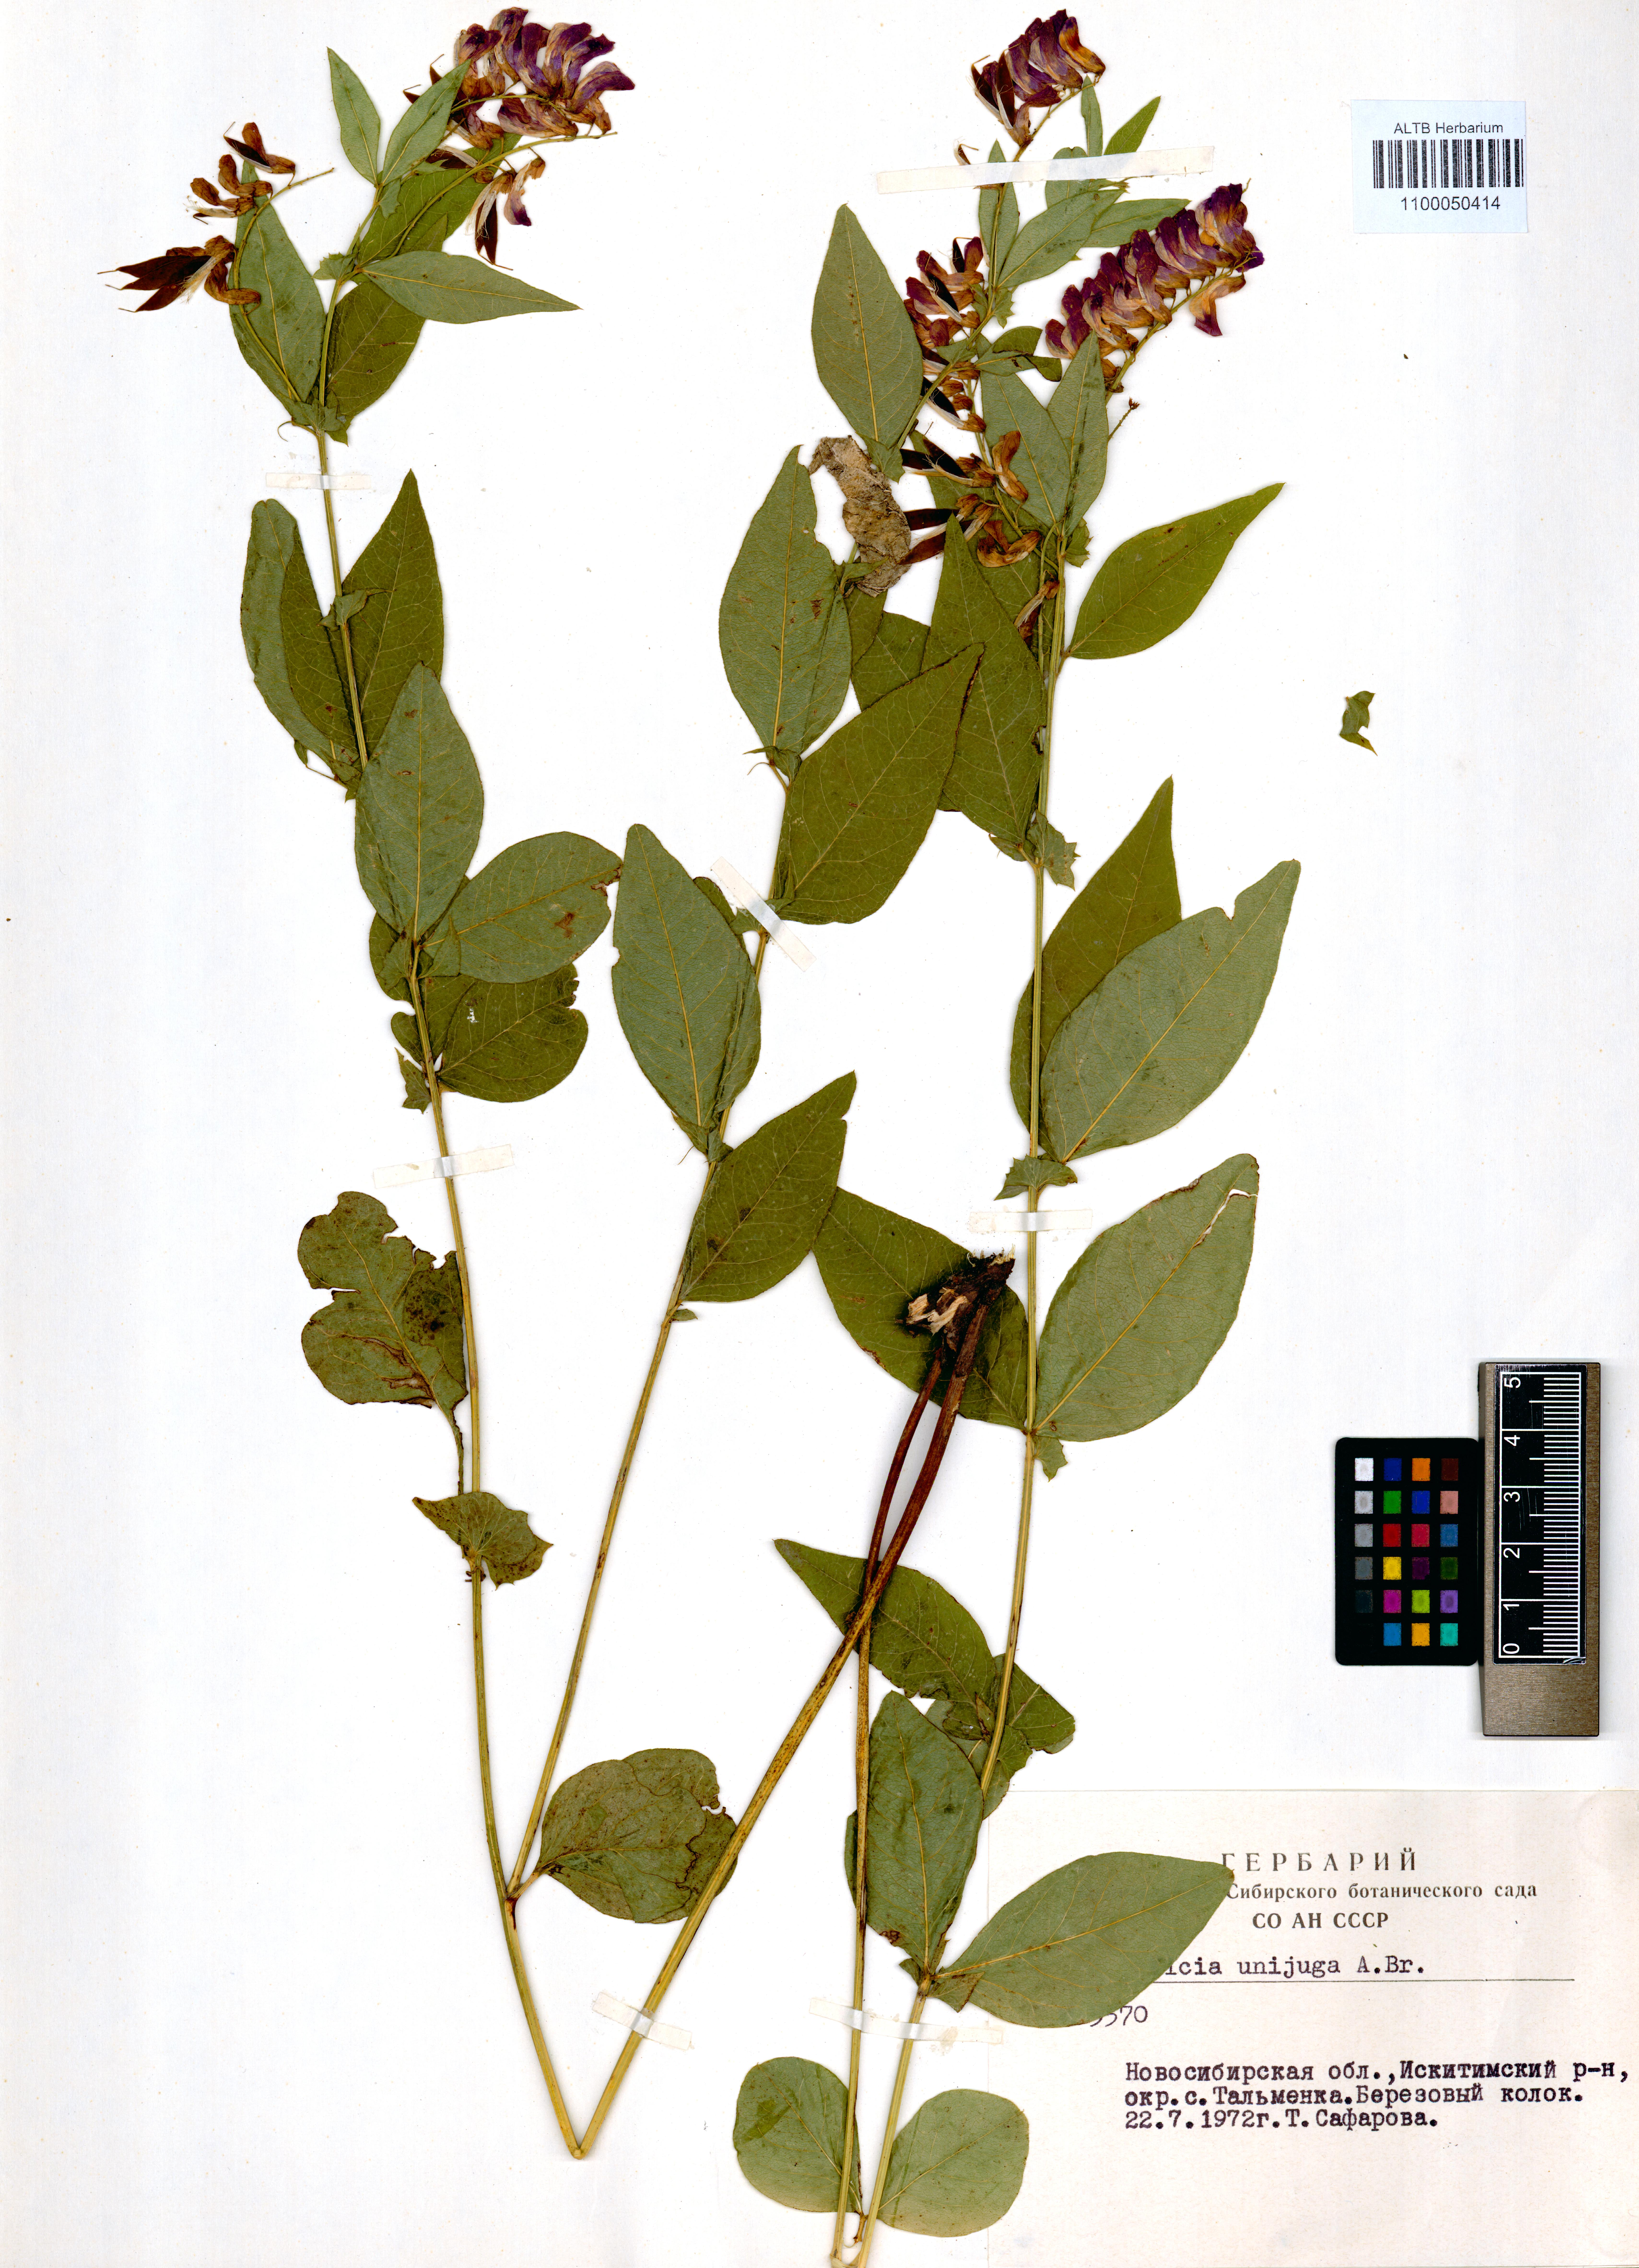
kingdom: Plantae
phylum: Tracheophyta
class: Magnoliopsida
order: Fabales
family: Fabaceae
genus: Vicia
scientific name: Vicia unijuga
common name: Two-leaf vetch
